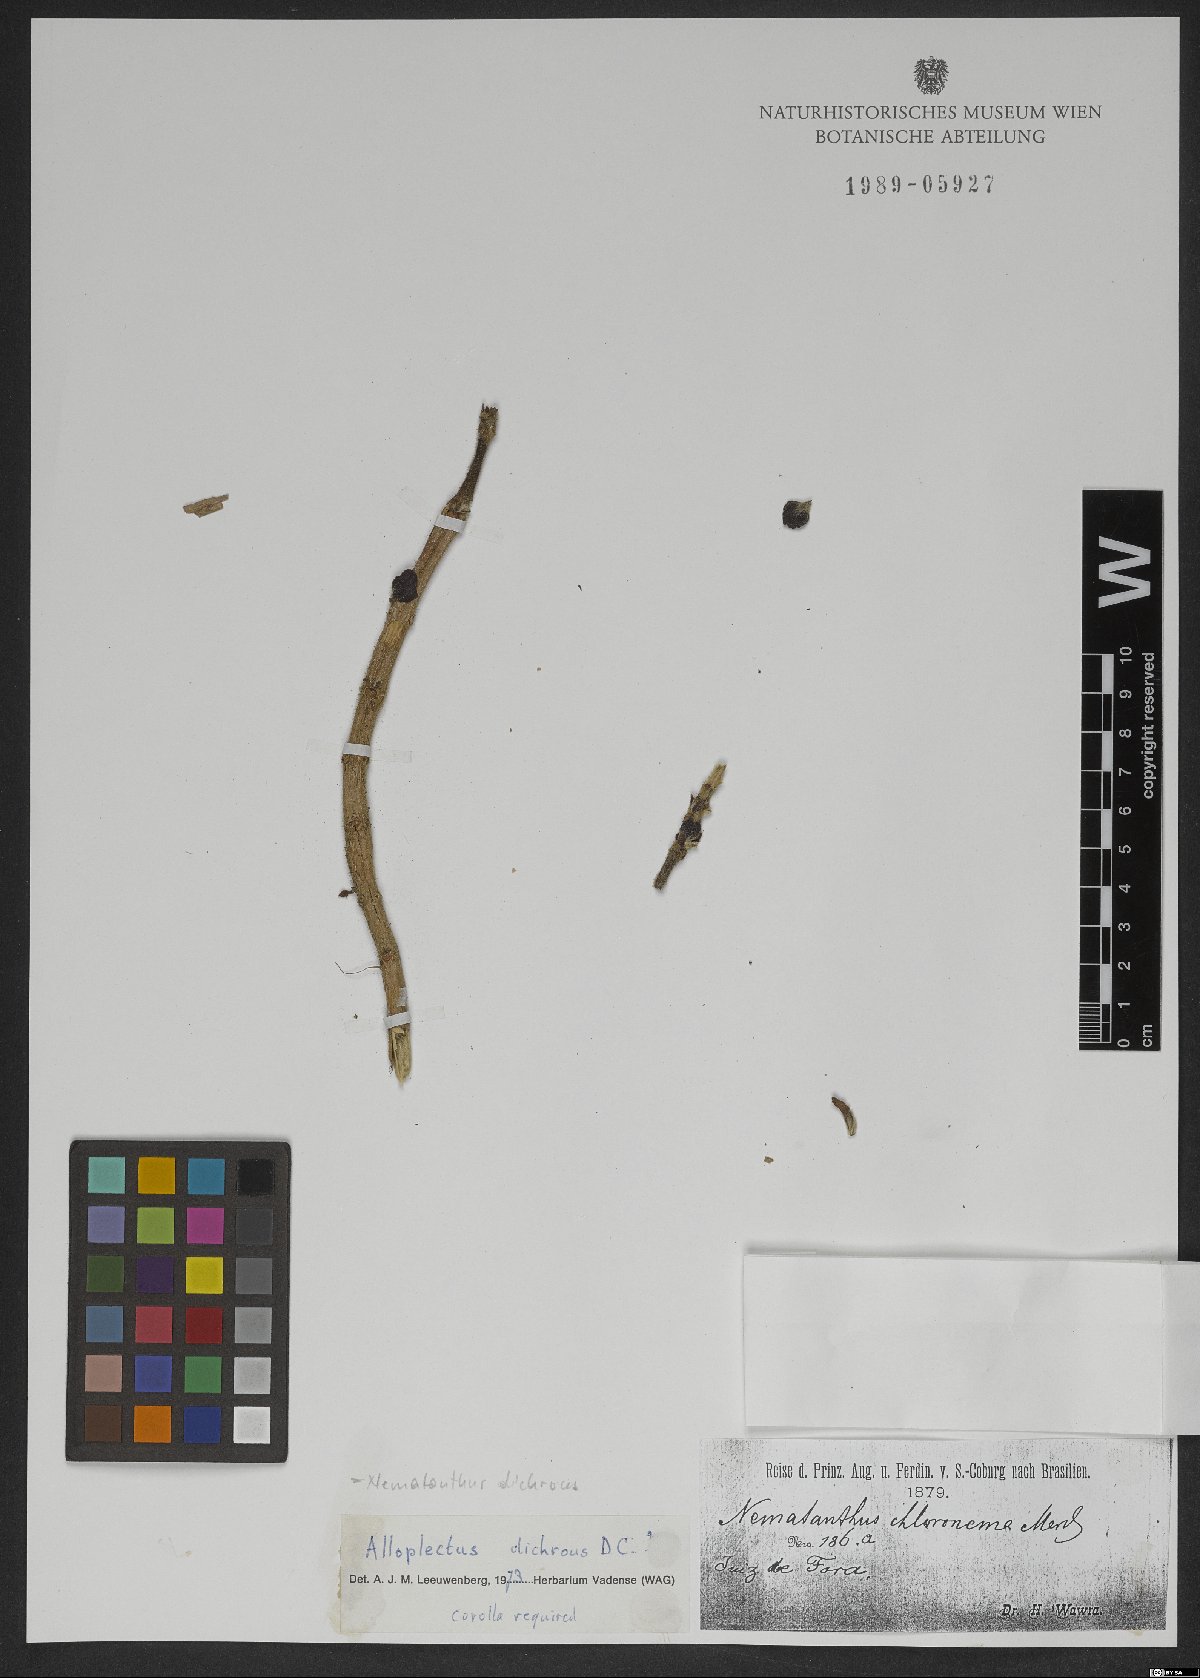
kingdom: Plantae
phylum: Tracheophyta
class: Magnoliopsida
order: Lamiales
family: Gesneriaceae
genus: Nematanthus
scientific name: Nematanthus lanceolatus
